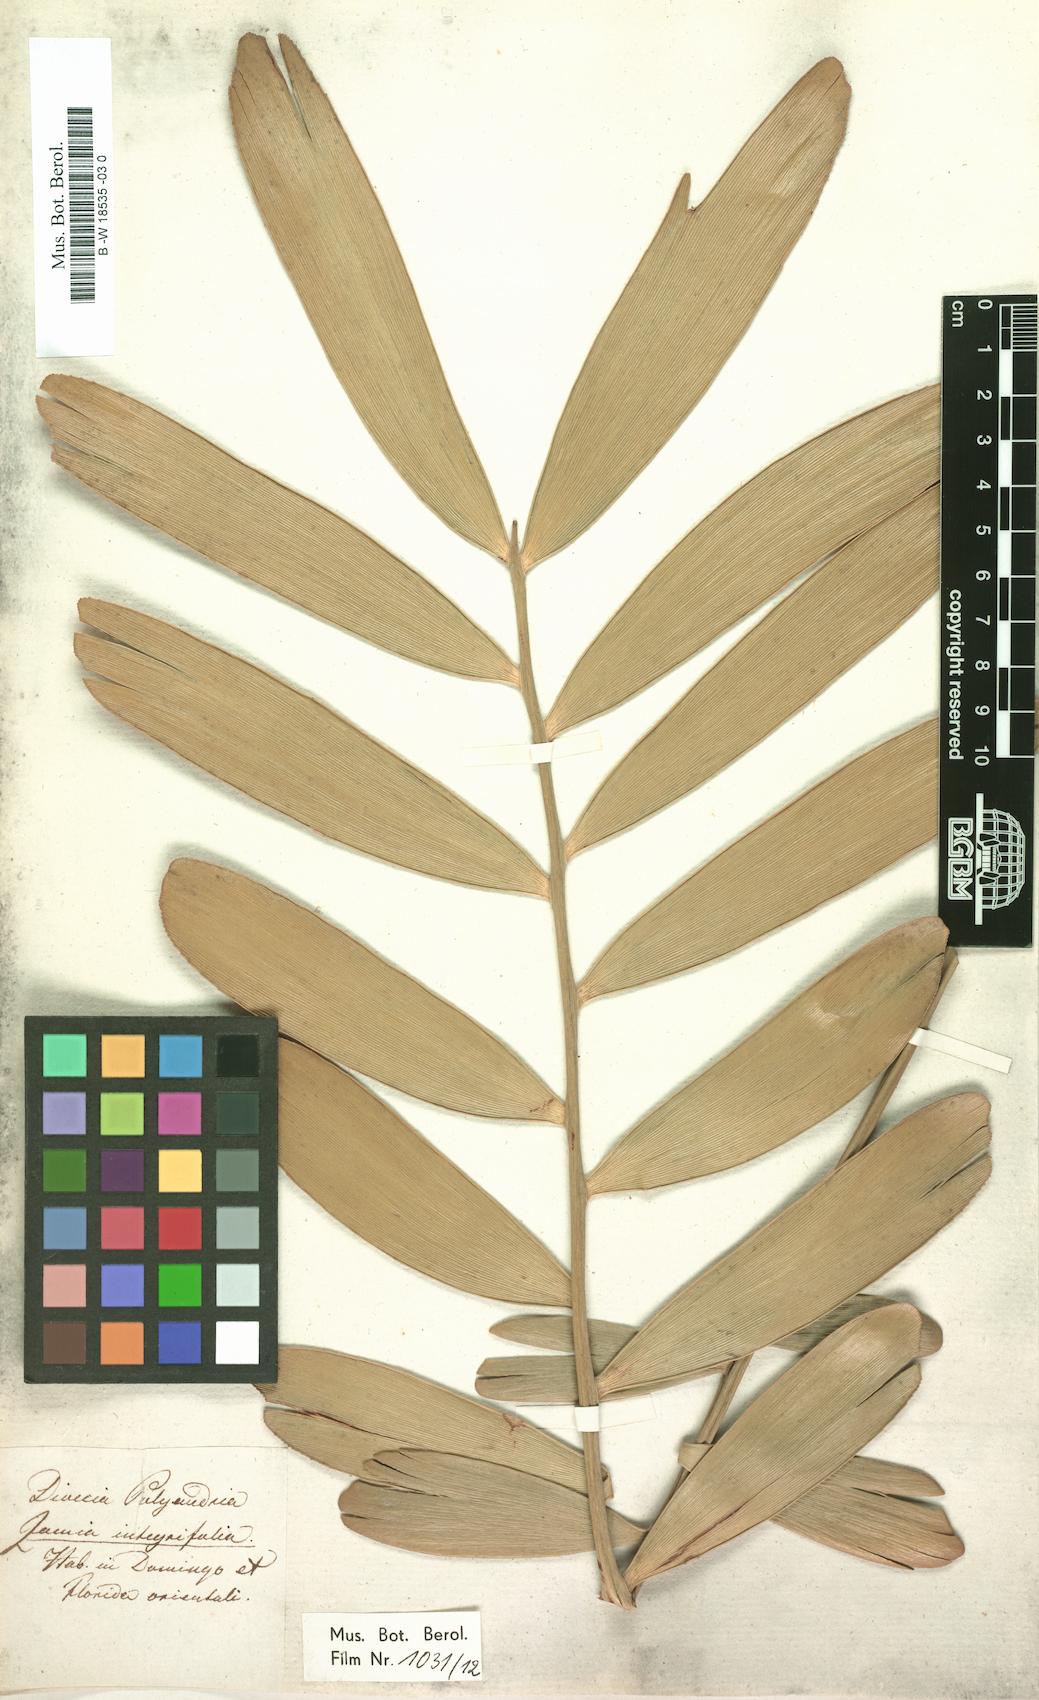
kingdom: Plantae
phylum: Tracheophyta
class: Cycadopsida
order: Cycadales
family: Zamiaceae
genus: Zamia
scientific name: Zamia integrifolia
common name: Florida arrowroot
